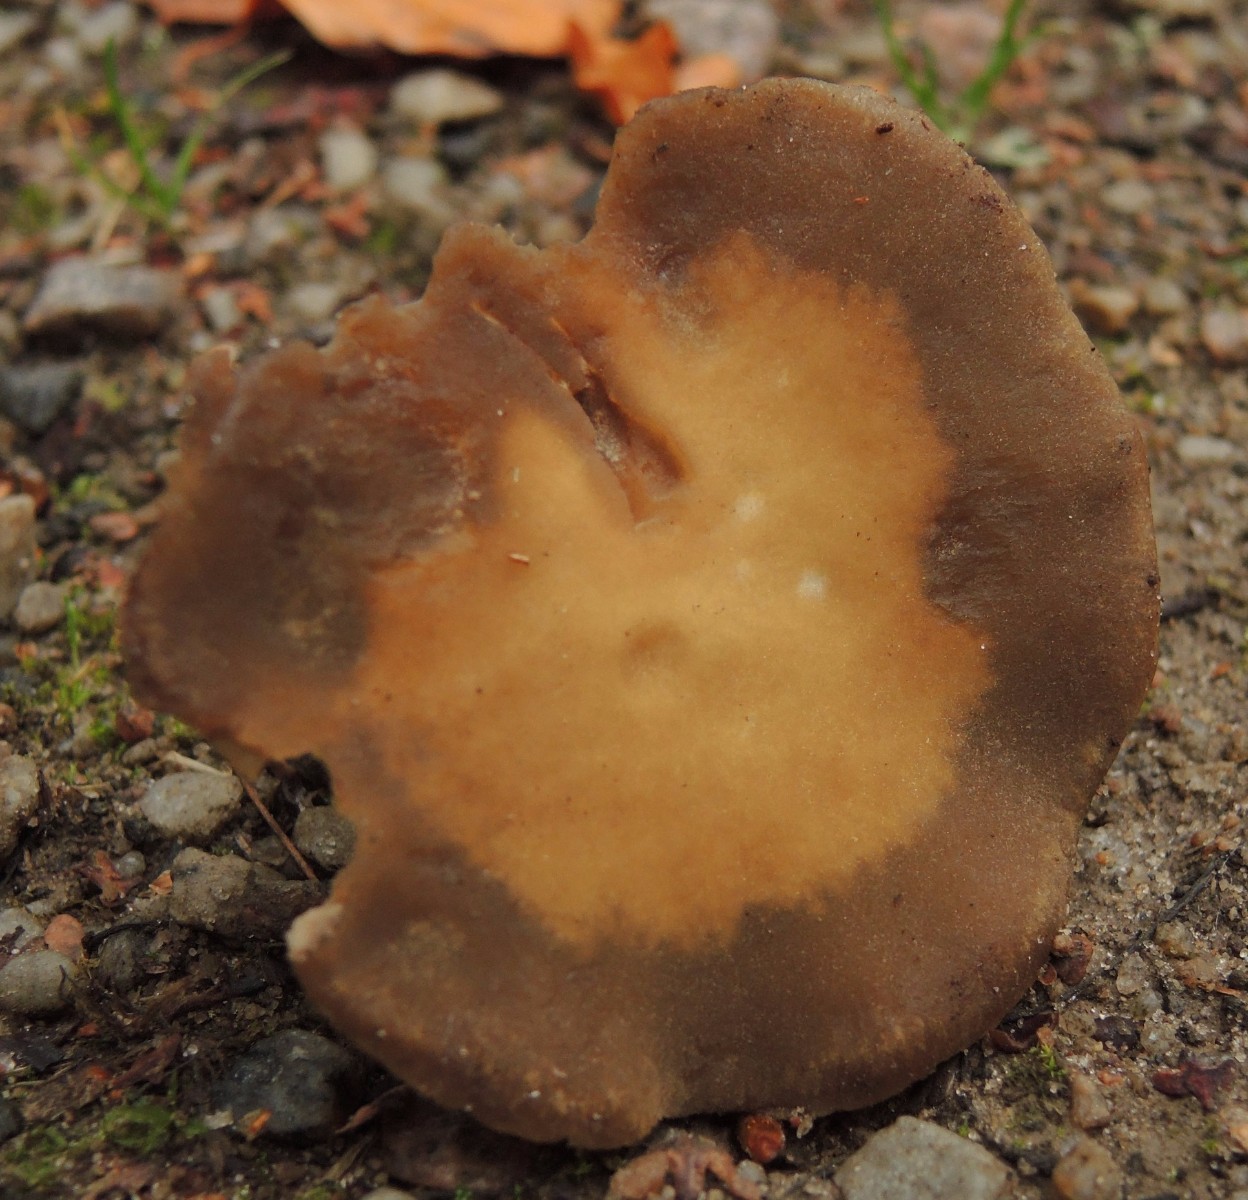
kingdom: Fungi
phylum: Basidiomycota
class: Agaricomycetes
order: Agaricales
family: Crepidotaceae
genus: Simocybe
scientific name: Simocybe sumptuosa
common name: stor skyggehat
